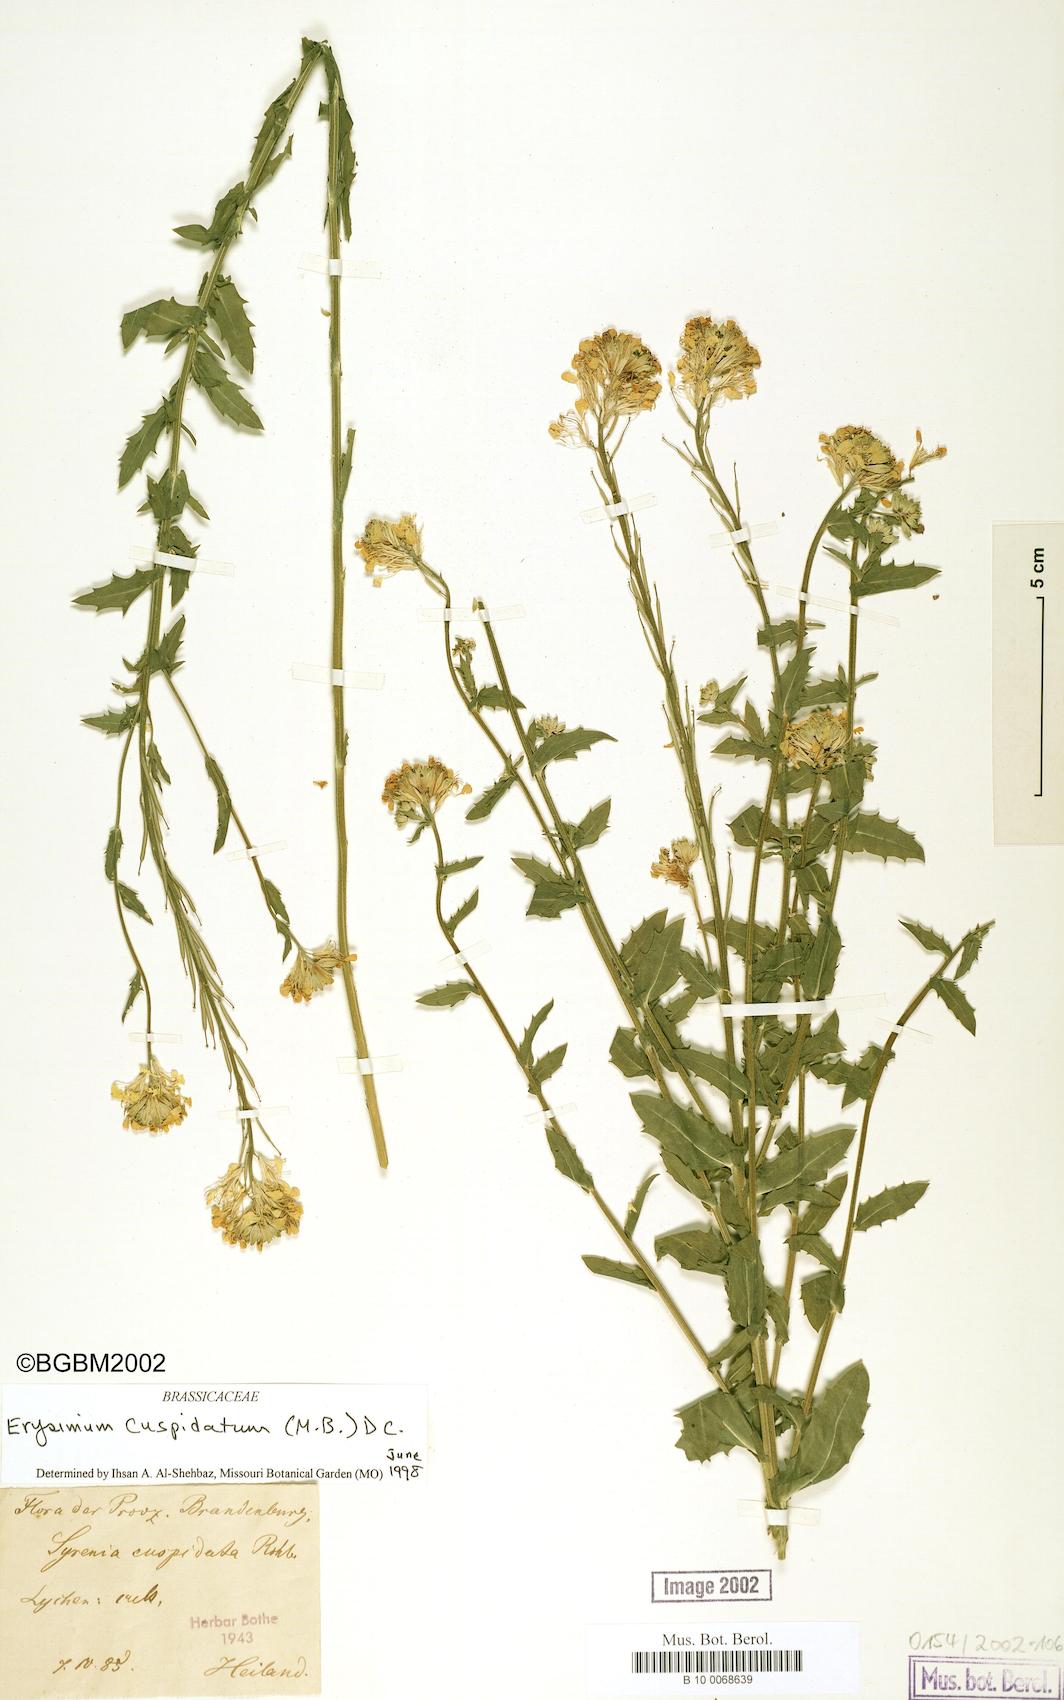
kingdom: Plantae
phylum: Tracheophyta
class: Magnoliopsida
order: Brassicales
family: Brassicaceae
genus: Erysimum
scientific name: Erysimum cuspidatum
